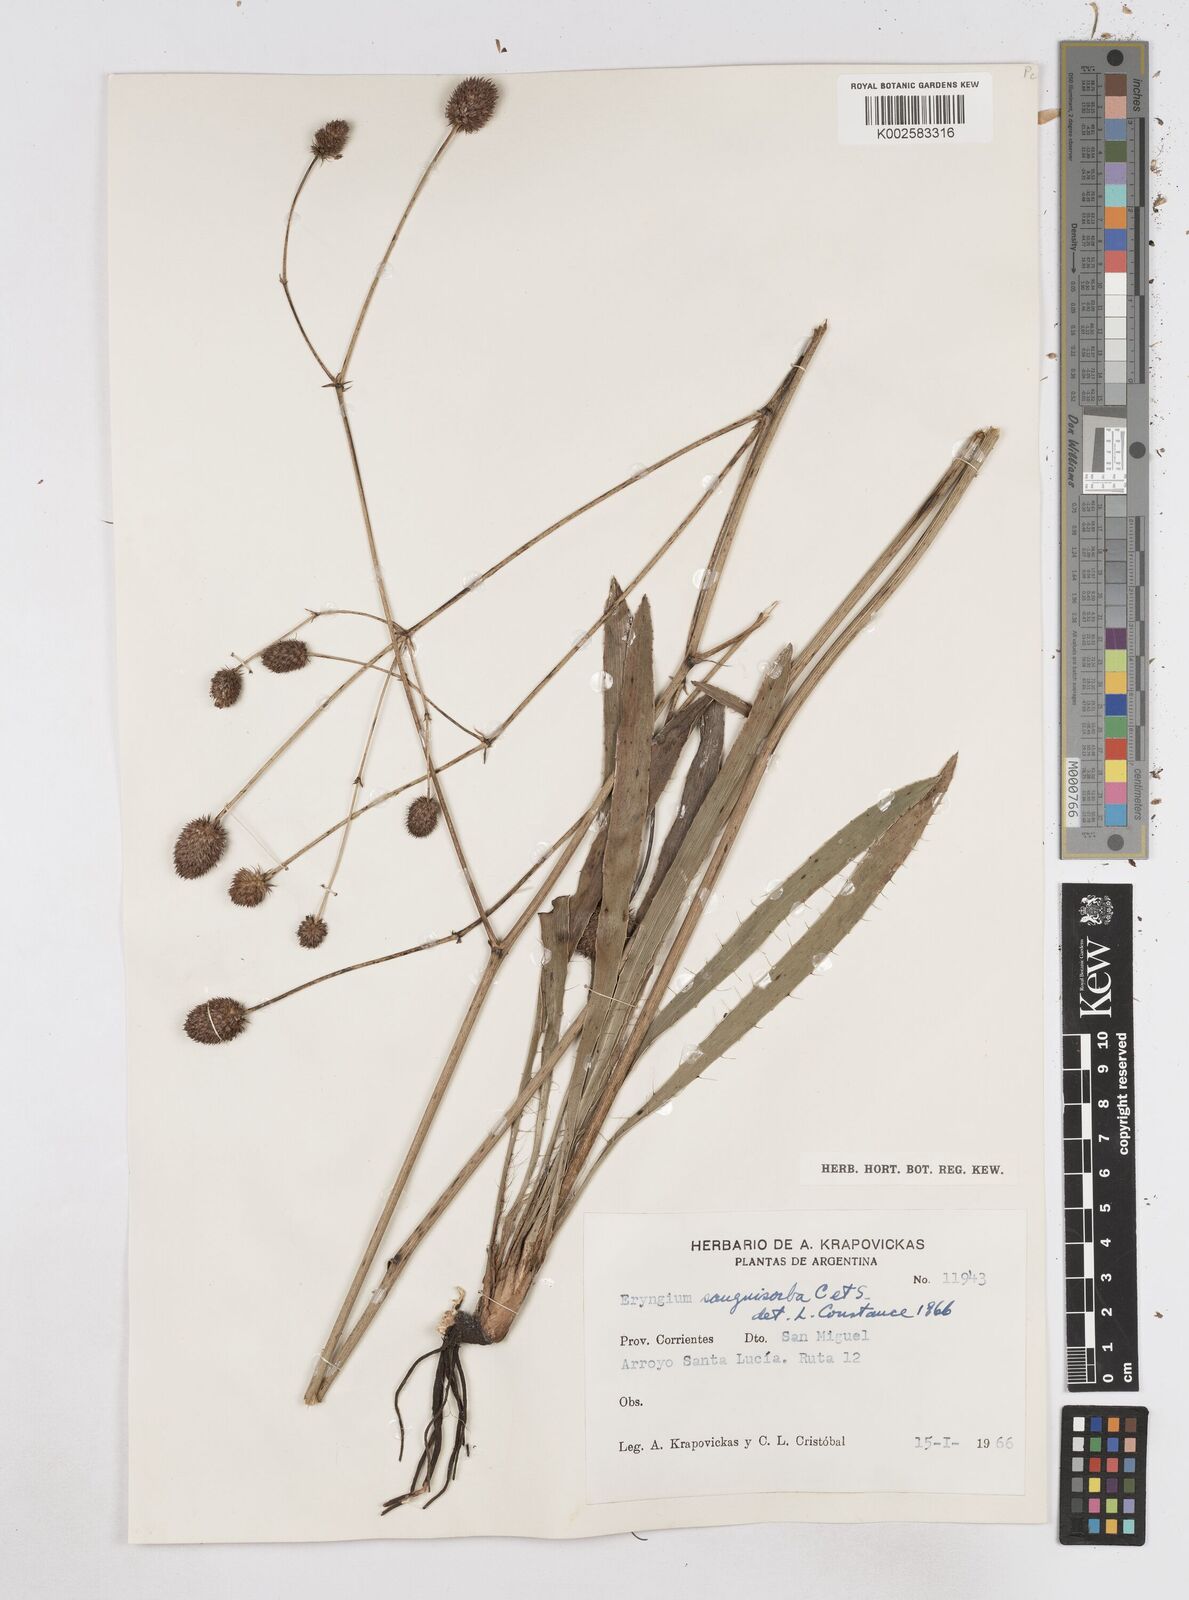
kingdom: Plantae
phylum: Tracheophyta
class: Magnoliopsida
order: Apiales
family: Apiaceae
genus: Eryngium
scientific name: Eryngium sanguisorba
